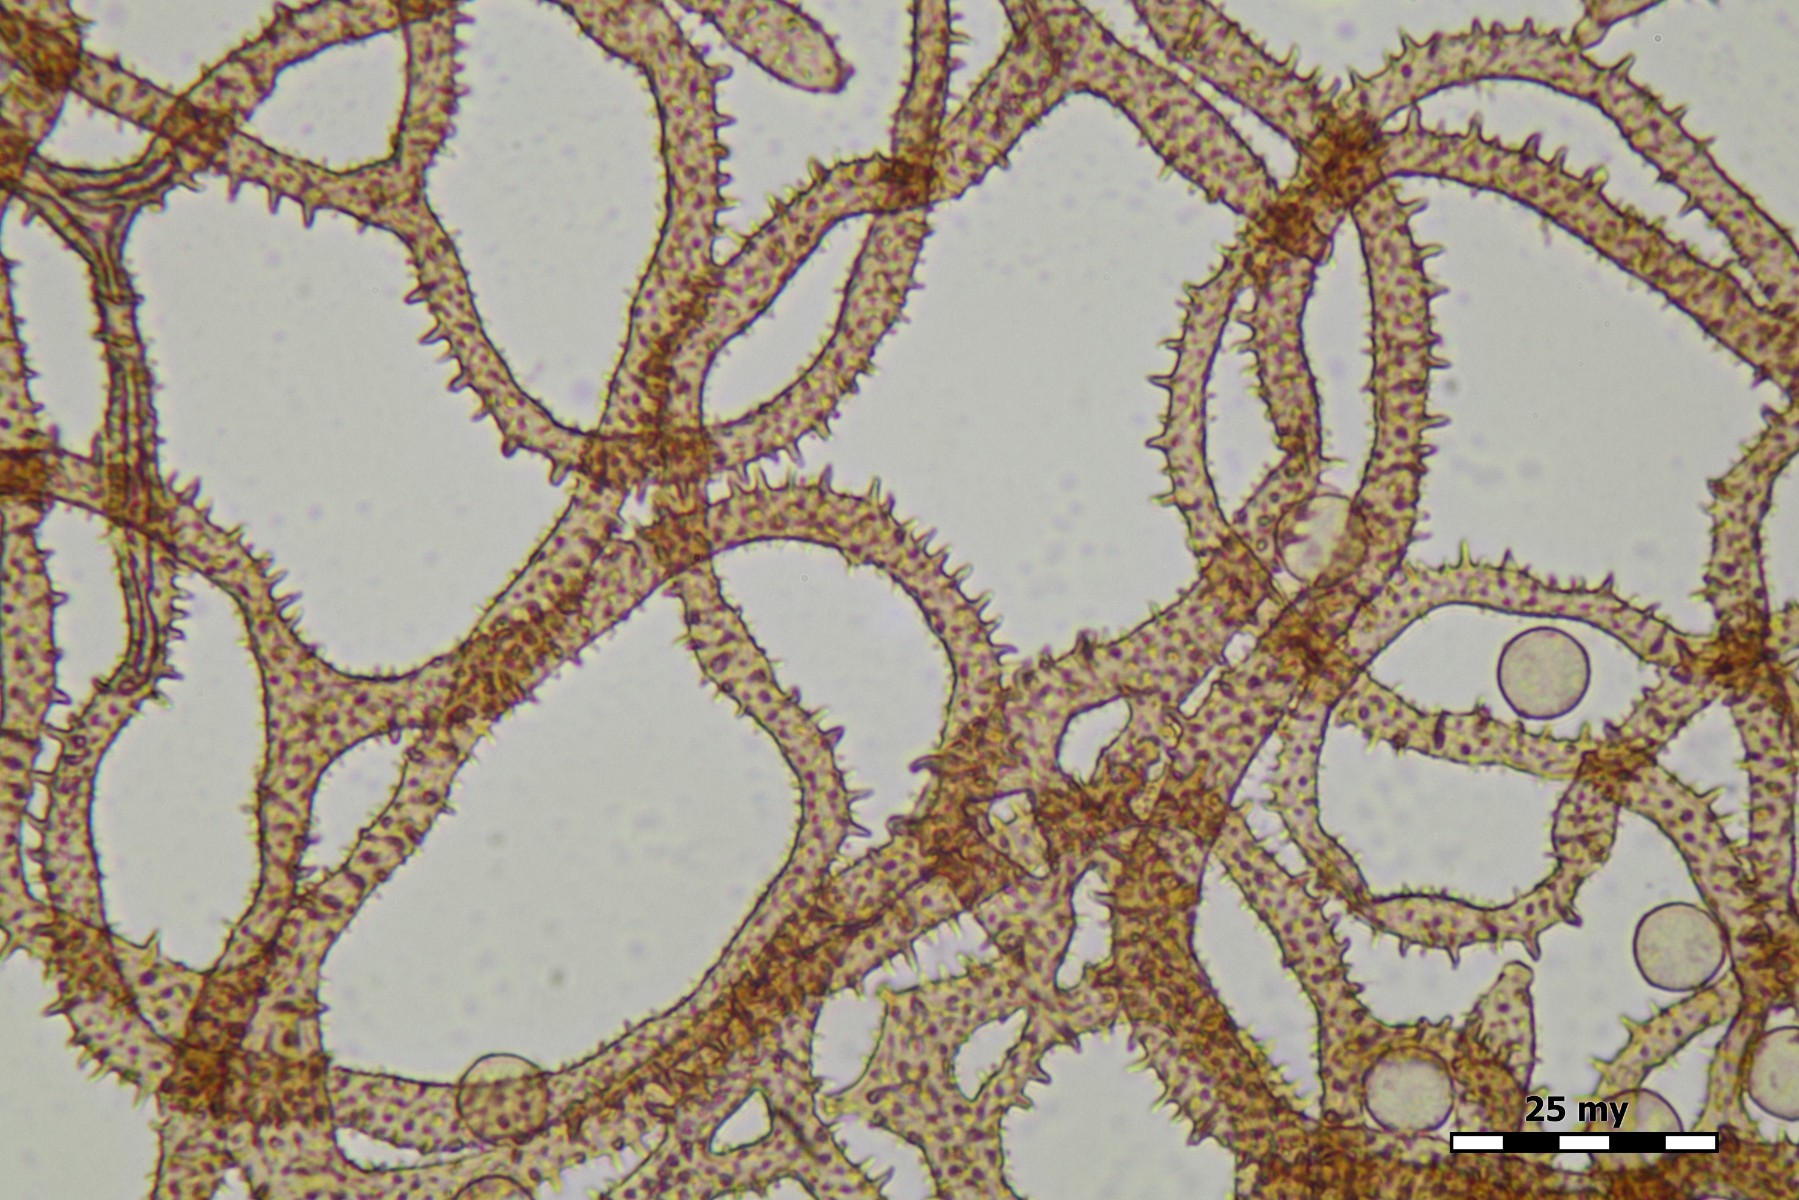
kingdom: Protozoa
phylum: Amoebozoa
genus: Arcyria
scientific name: Arcyria oerstedtii
